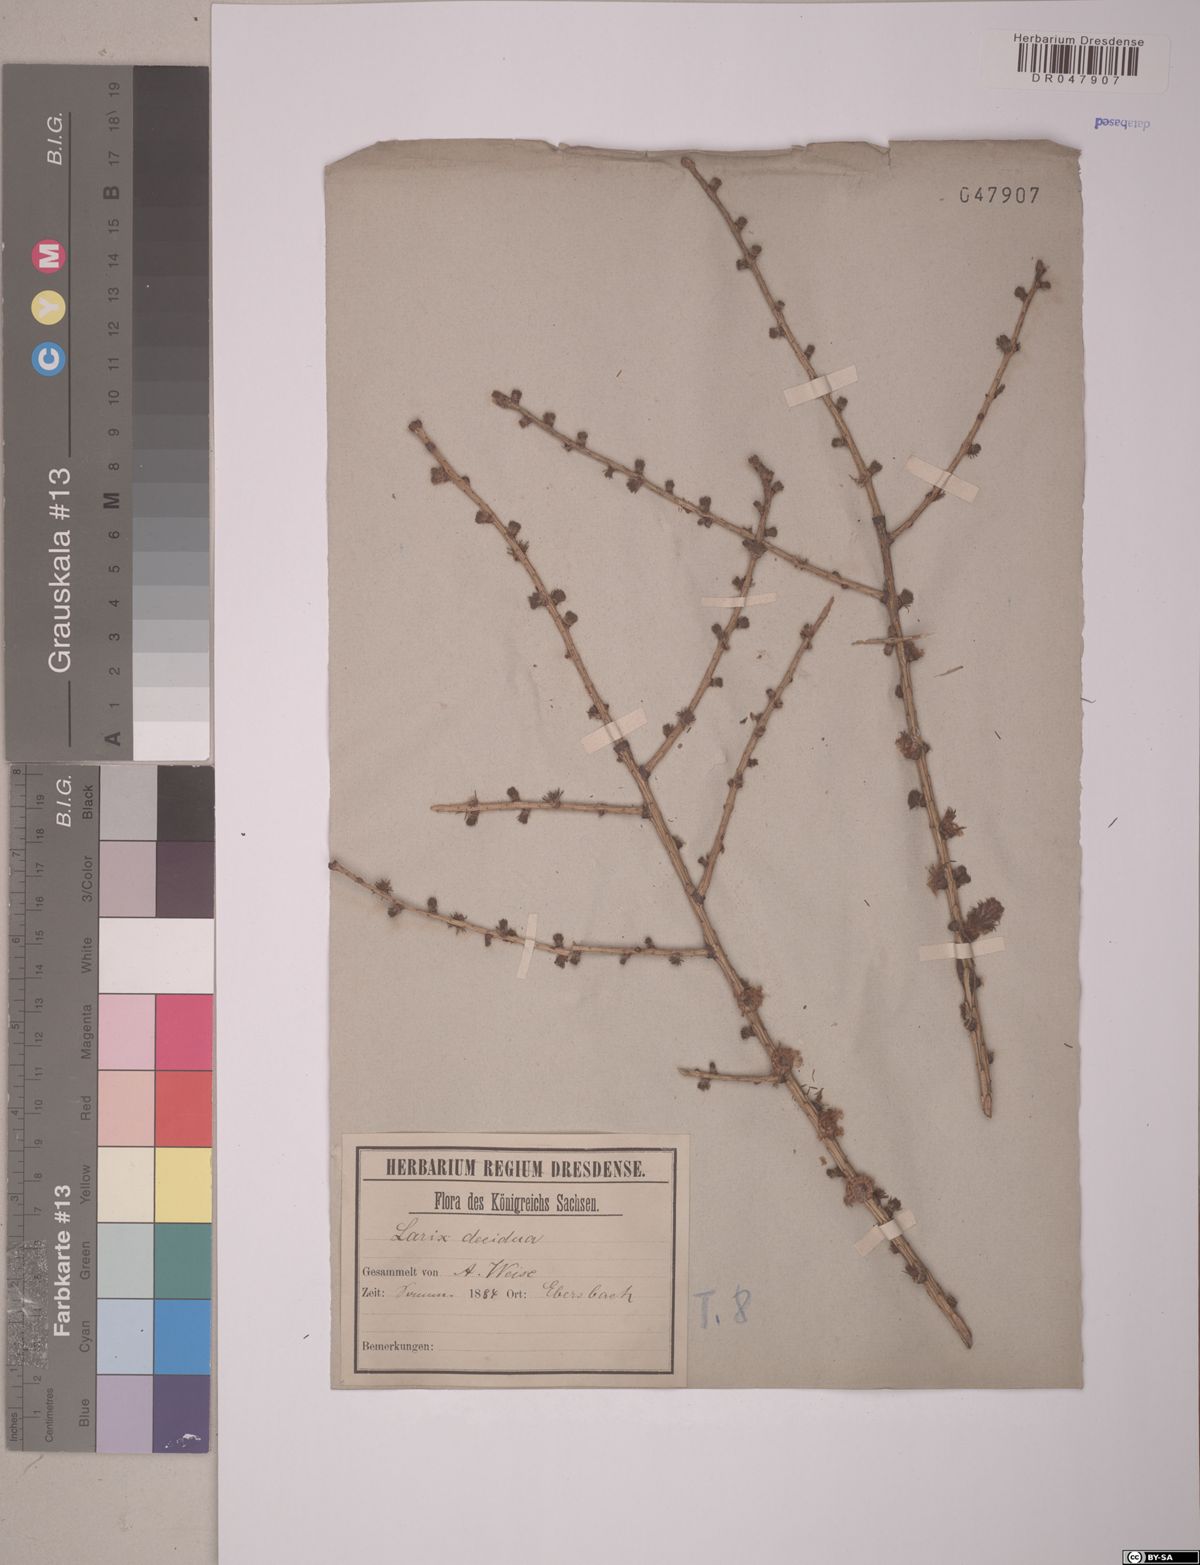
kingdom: Plantae
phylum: Tracheophyta
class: Pinopsida
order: Pinales
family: Pinaceae
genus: Larix
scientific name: Larix decidua
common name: European larch
